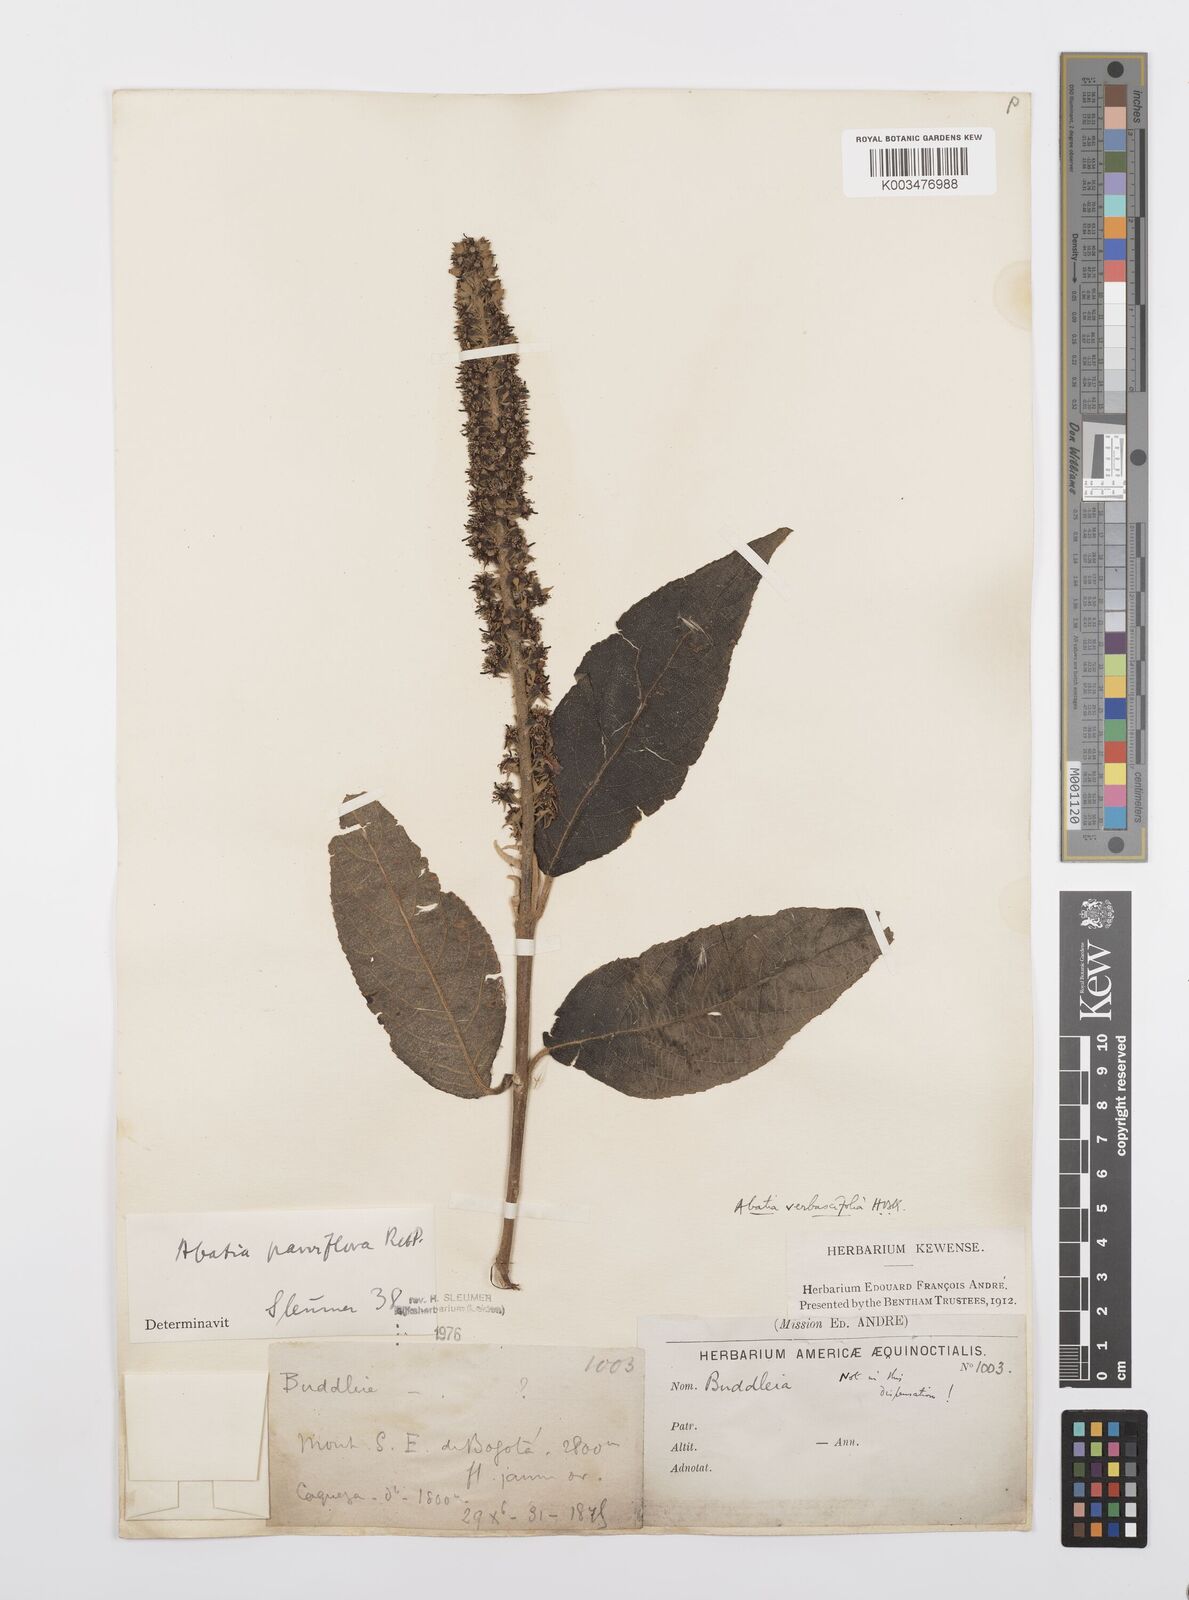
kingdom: Plantae
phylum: Tracheophyta
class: Magnoliopsida
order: Malpighiales
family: Salicaceae
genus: Abatia
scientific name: Abatia parviflora
